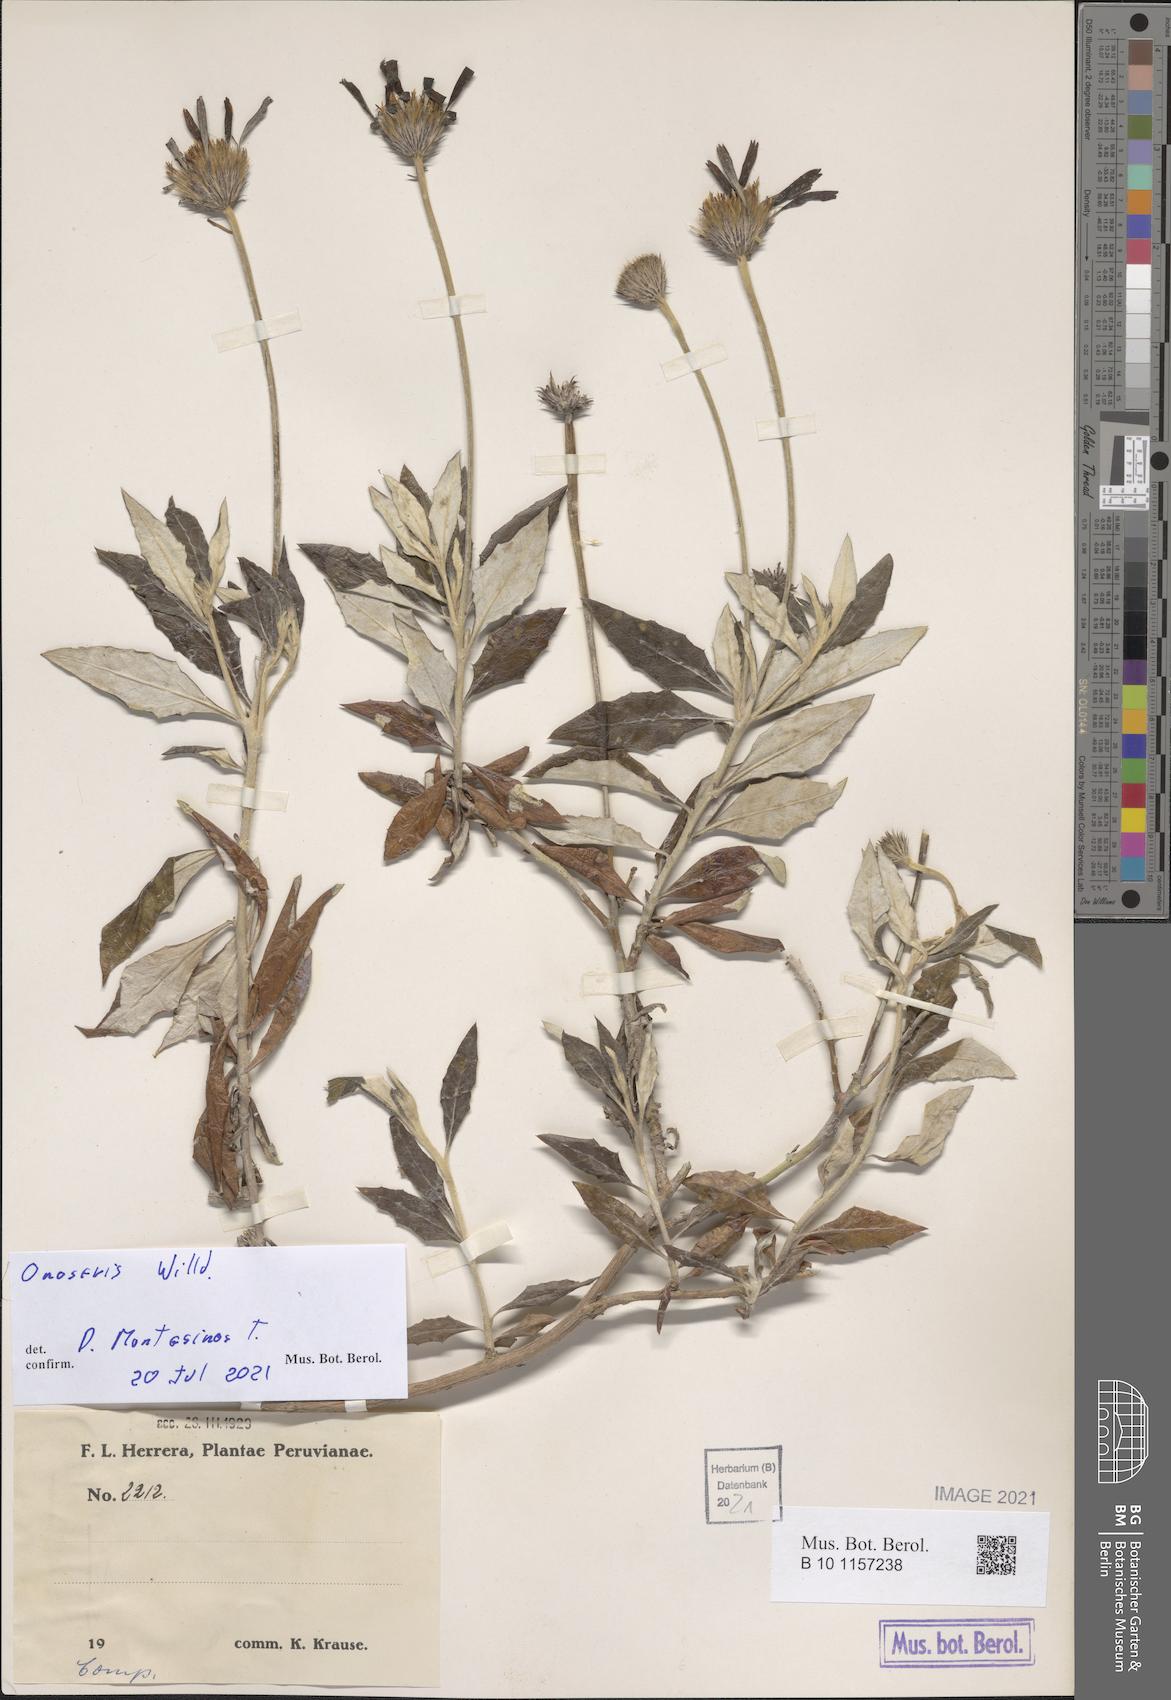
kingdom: Plantae
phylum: Tracheophyta
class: Magnoliopsida
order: Asterales
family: Asteraceae
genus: Onoseris
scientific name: Onoseris
